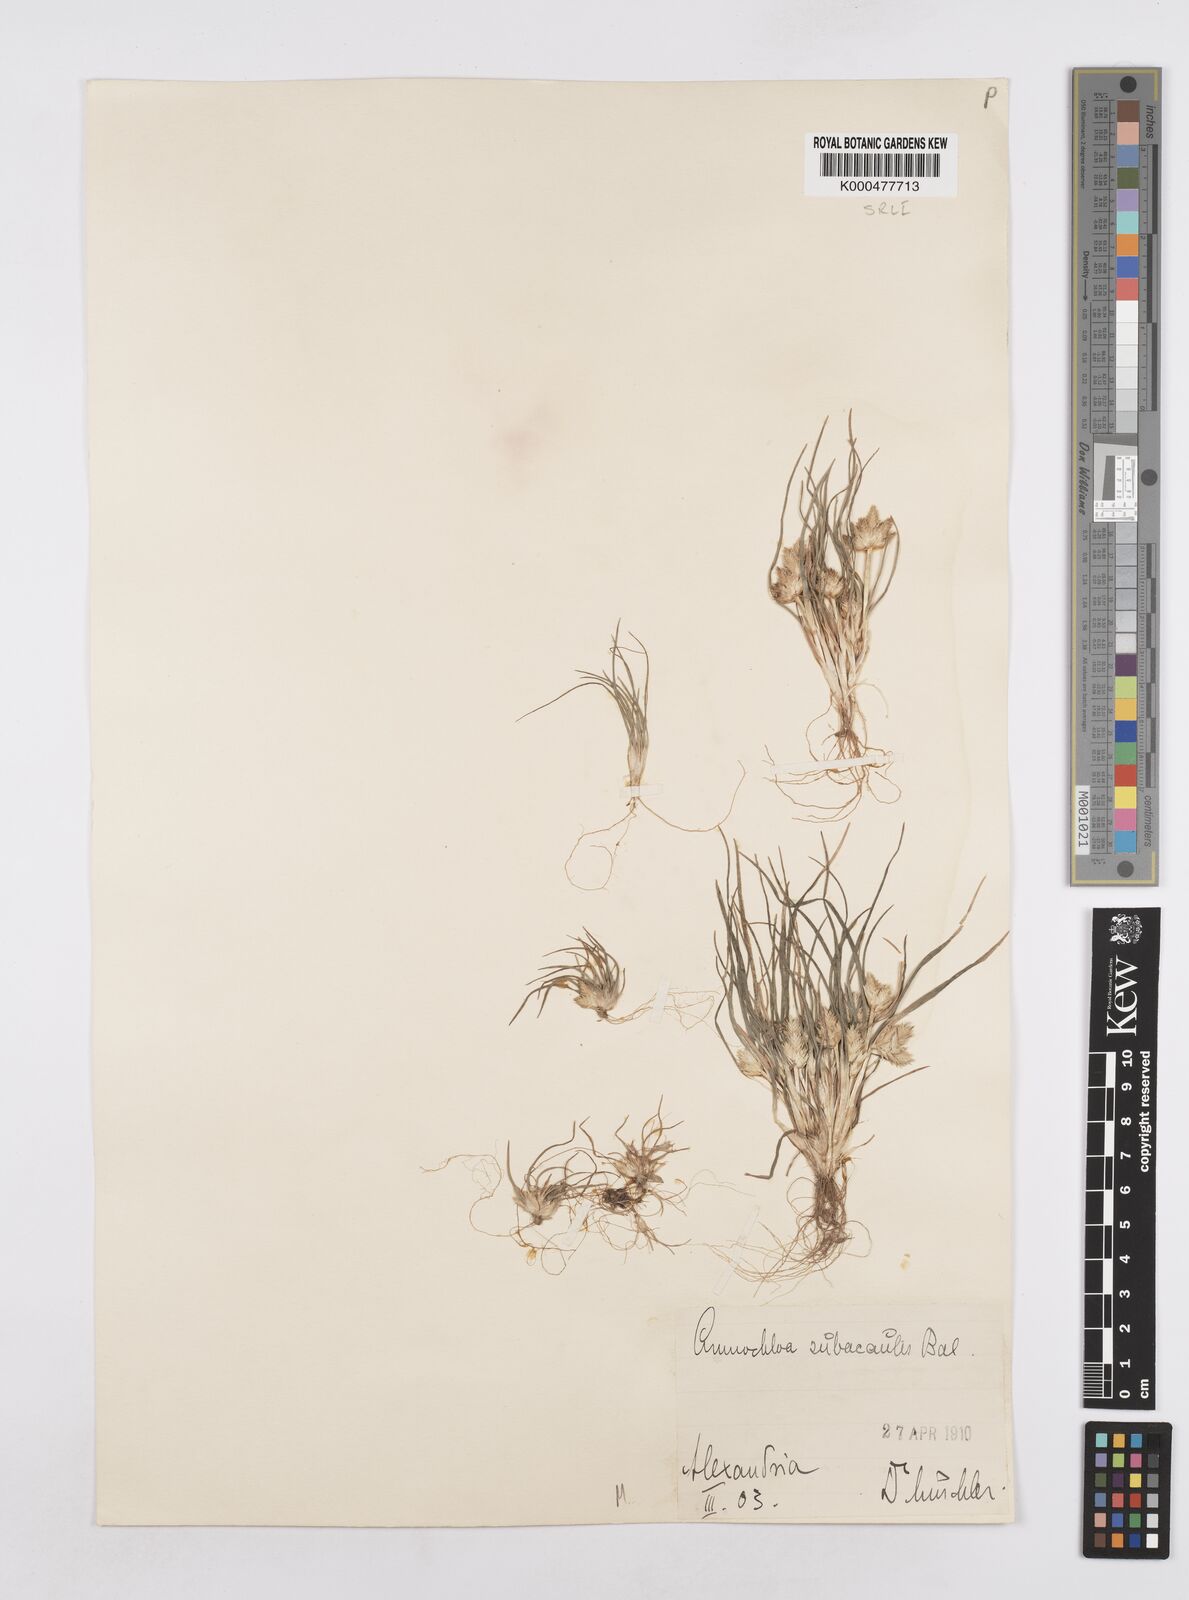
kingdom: Plantae
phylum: Tracheophyta
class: Liliopsida
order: Poales
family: Poaceae
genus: Ammochloa
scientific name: Ammochloa palaestina
